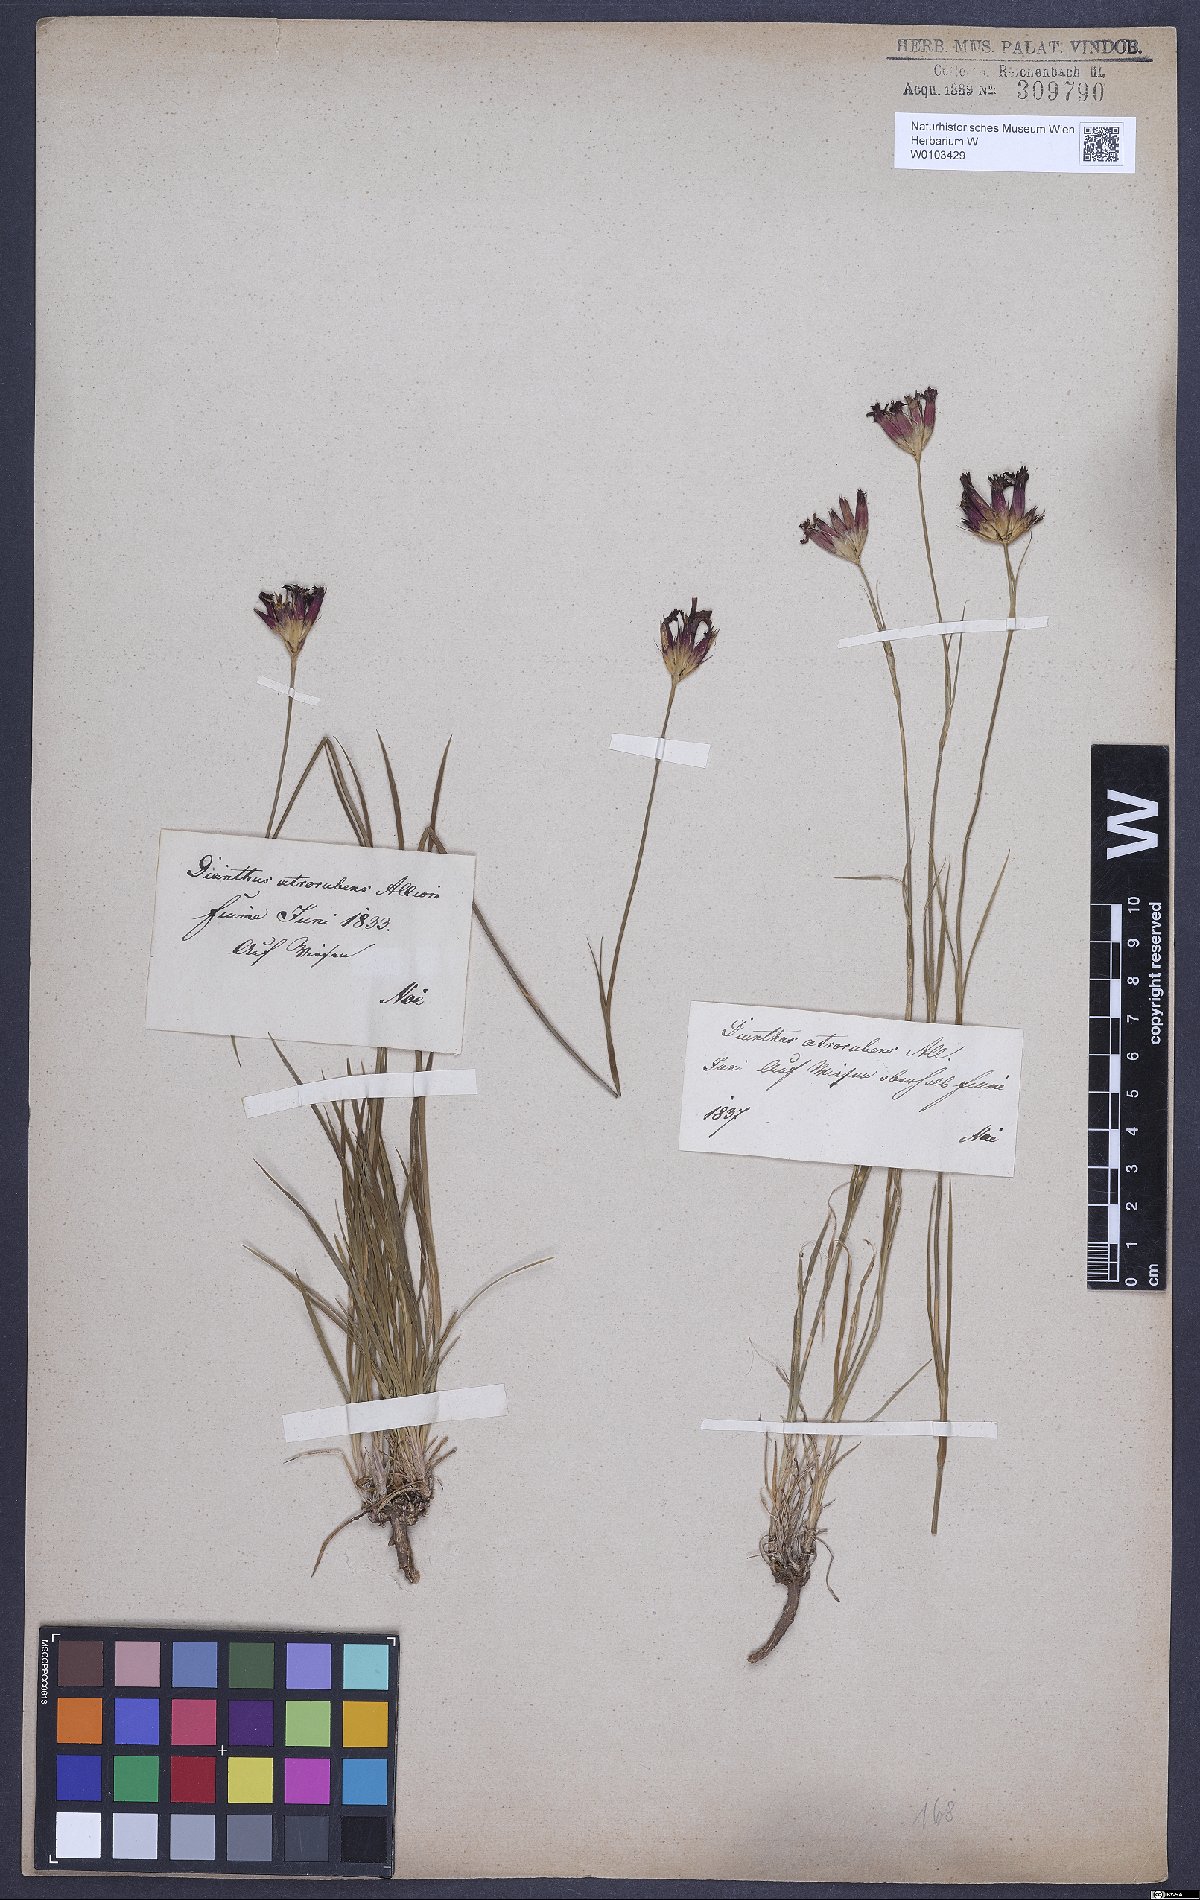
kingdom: Plantae
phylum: Tracheophyta
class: Magnoliopsida
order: Caryophyllales
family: Caryophyllaceae
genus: Dianthus
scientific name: Dianthus carthusianorum
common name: Carthusian pink
